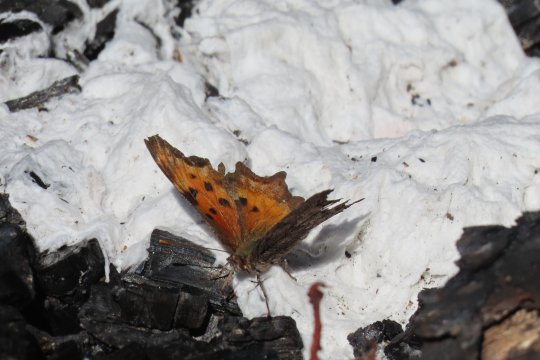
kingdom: Animalia
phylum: Arthropoda
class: Insecta
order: Lepidoptera
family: Nymphalidae
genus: Polygonia
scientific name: Polygonia gracilis
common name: Hoary Comma
